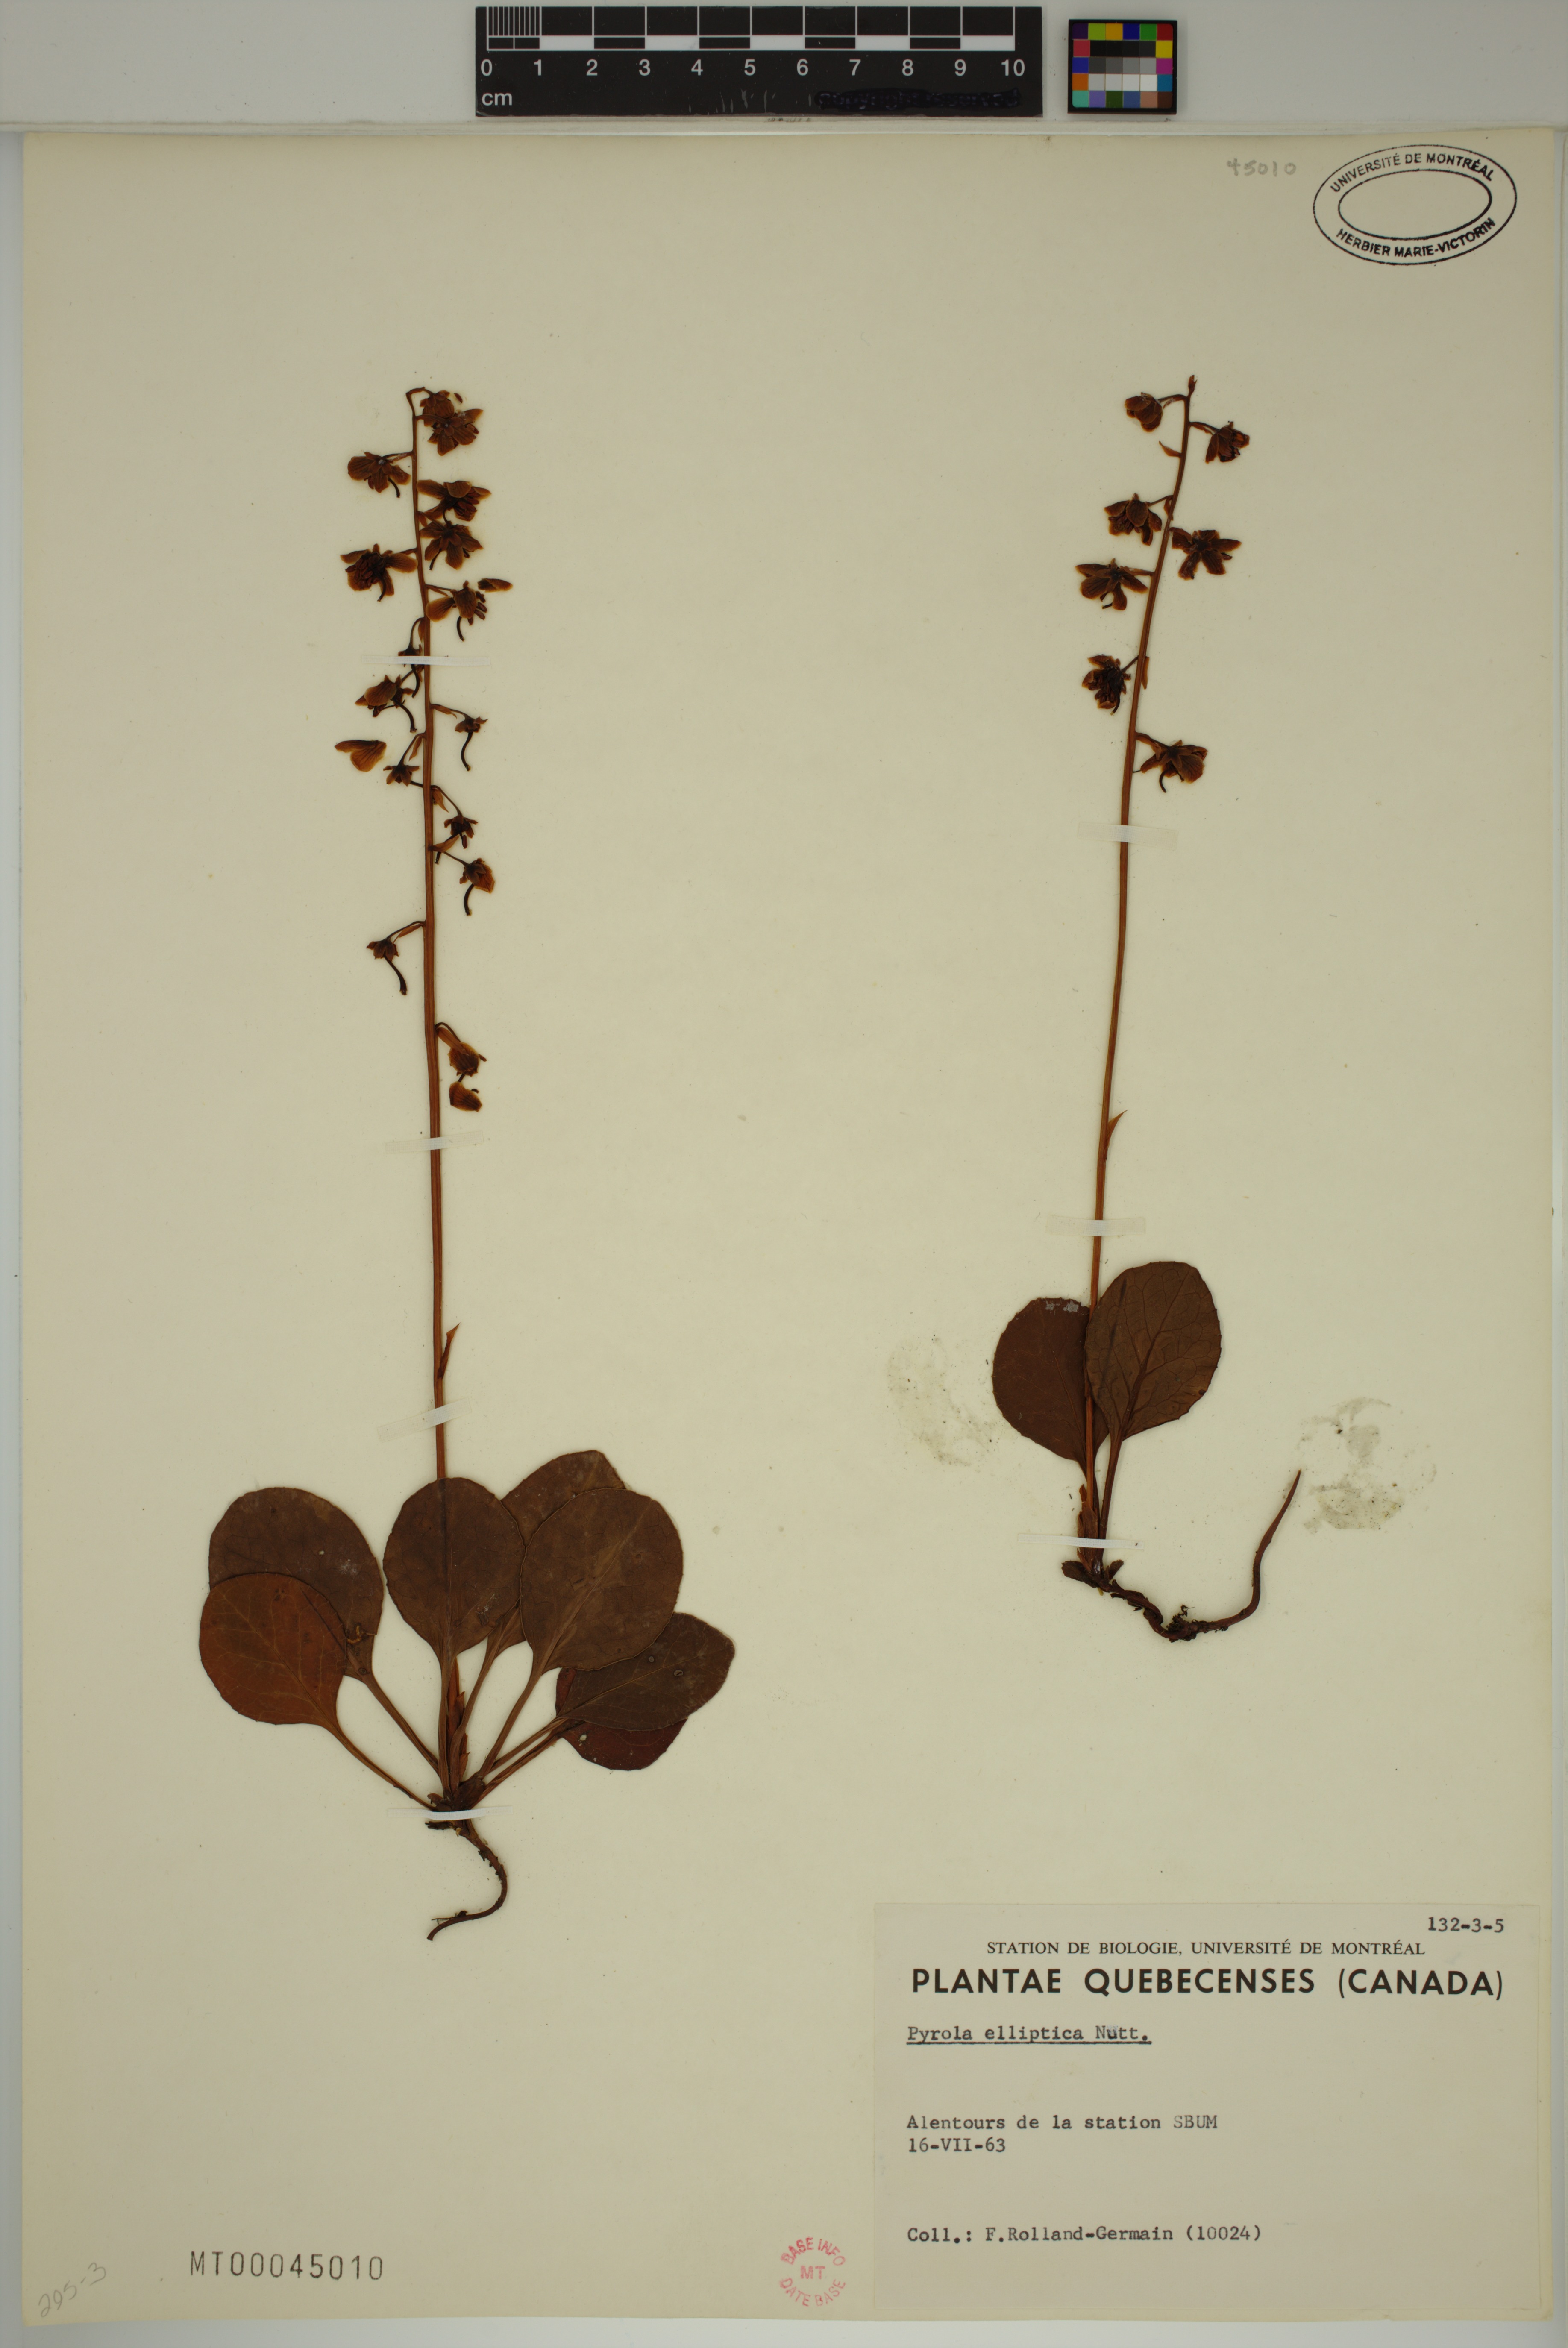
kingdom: Plantae
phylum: Tracheophyta
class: Magnoliopsida
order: Ericales
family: Ericaceae
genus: Pyrola
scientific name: Pyrola elliptica
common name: Shinleaf
